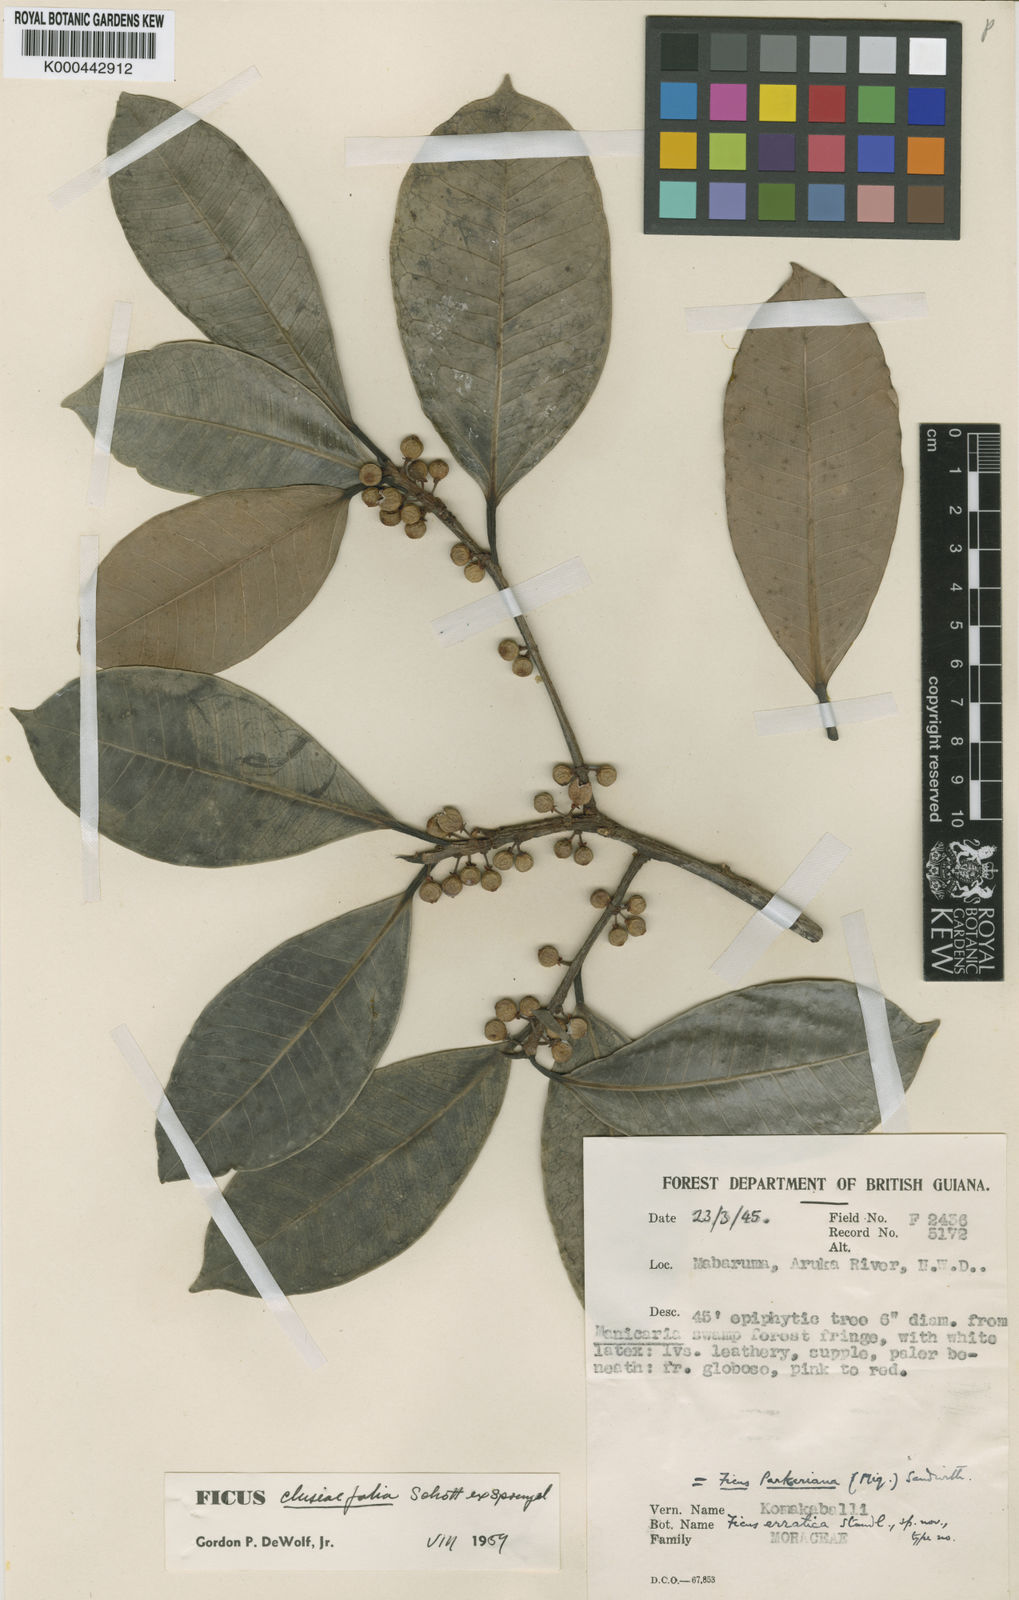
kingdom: Plantae
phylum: Tracheophyta
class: Magnoliopsida
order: Rosales
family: Moraceae
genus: Ficus
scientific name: Ficus americana
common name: Jamaican cherry fig
